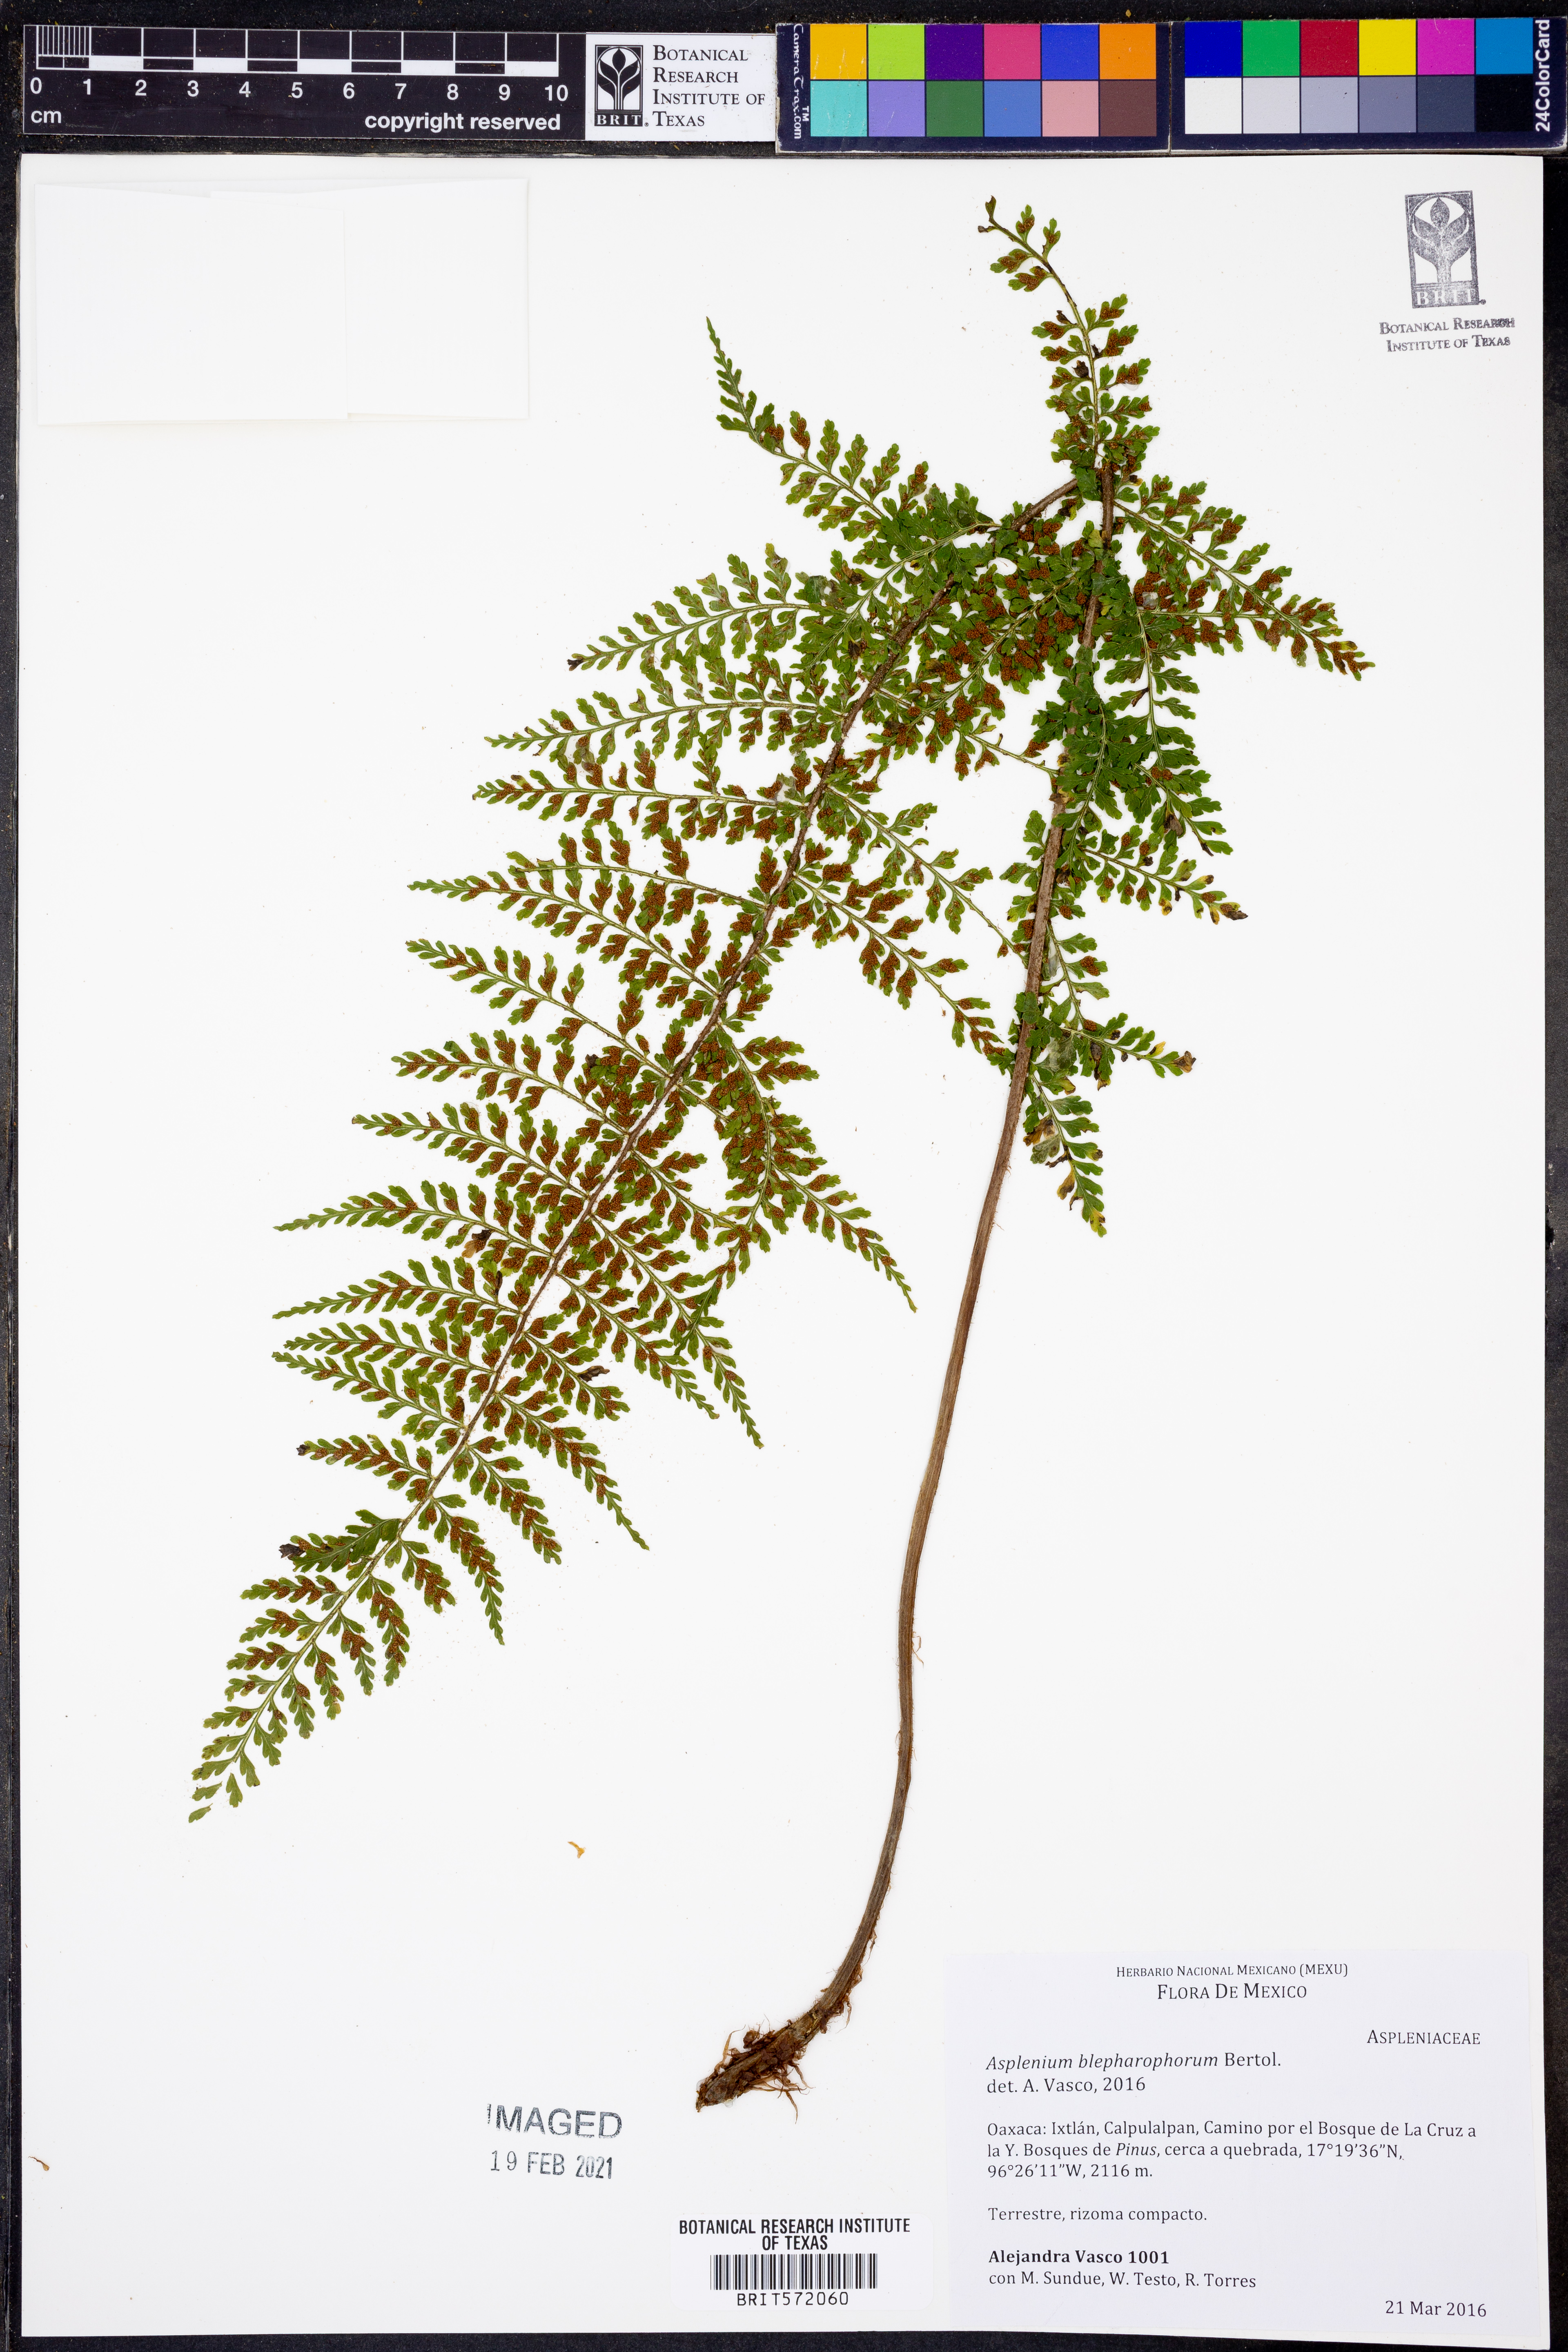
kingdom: Plantae
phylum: Tracheophyta
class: Polypodiopsida
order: Polypodiales
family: Aspleniaceae
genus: Asplenium
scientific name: Asplenium blepharophorum
